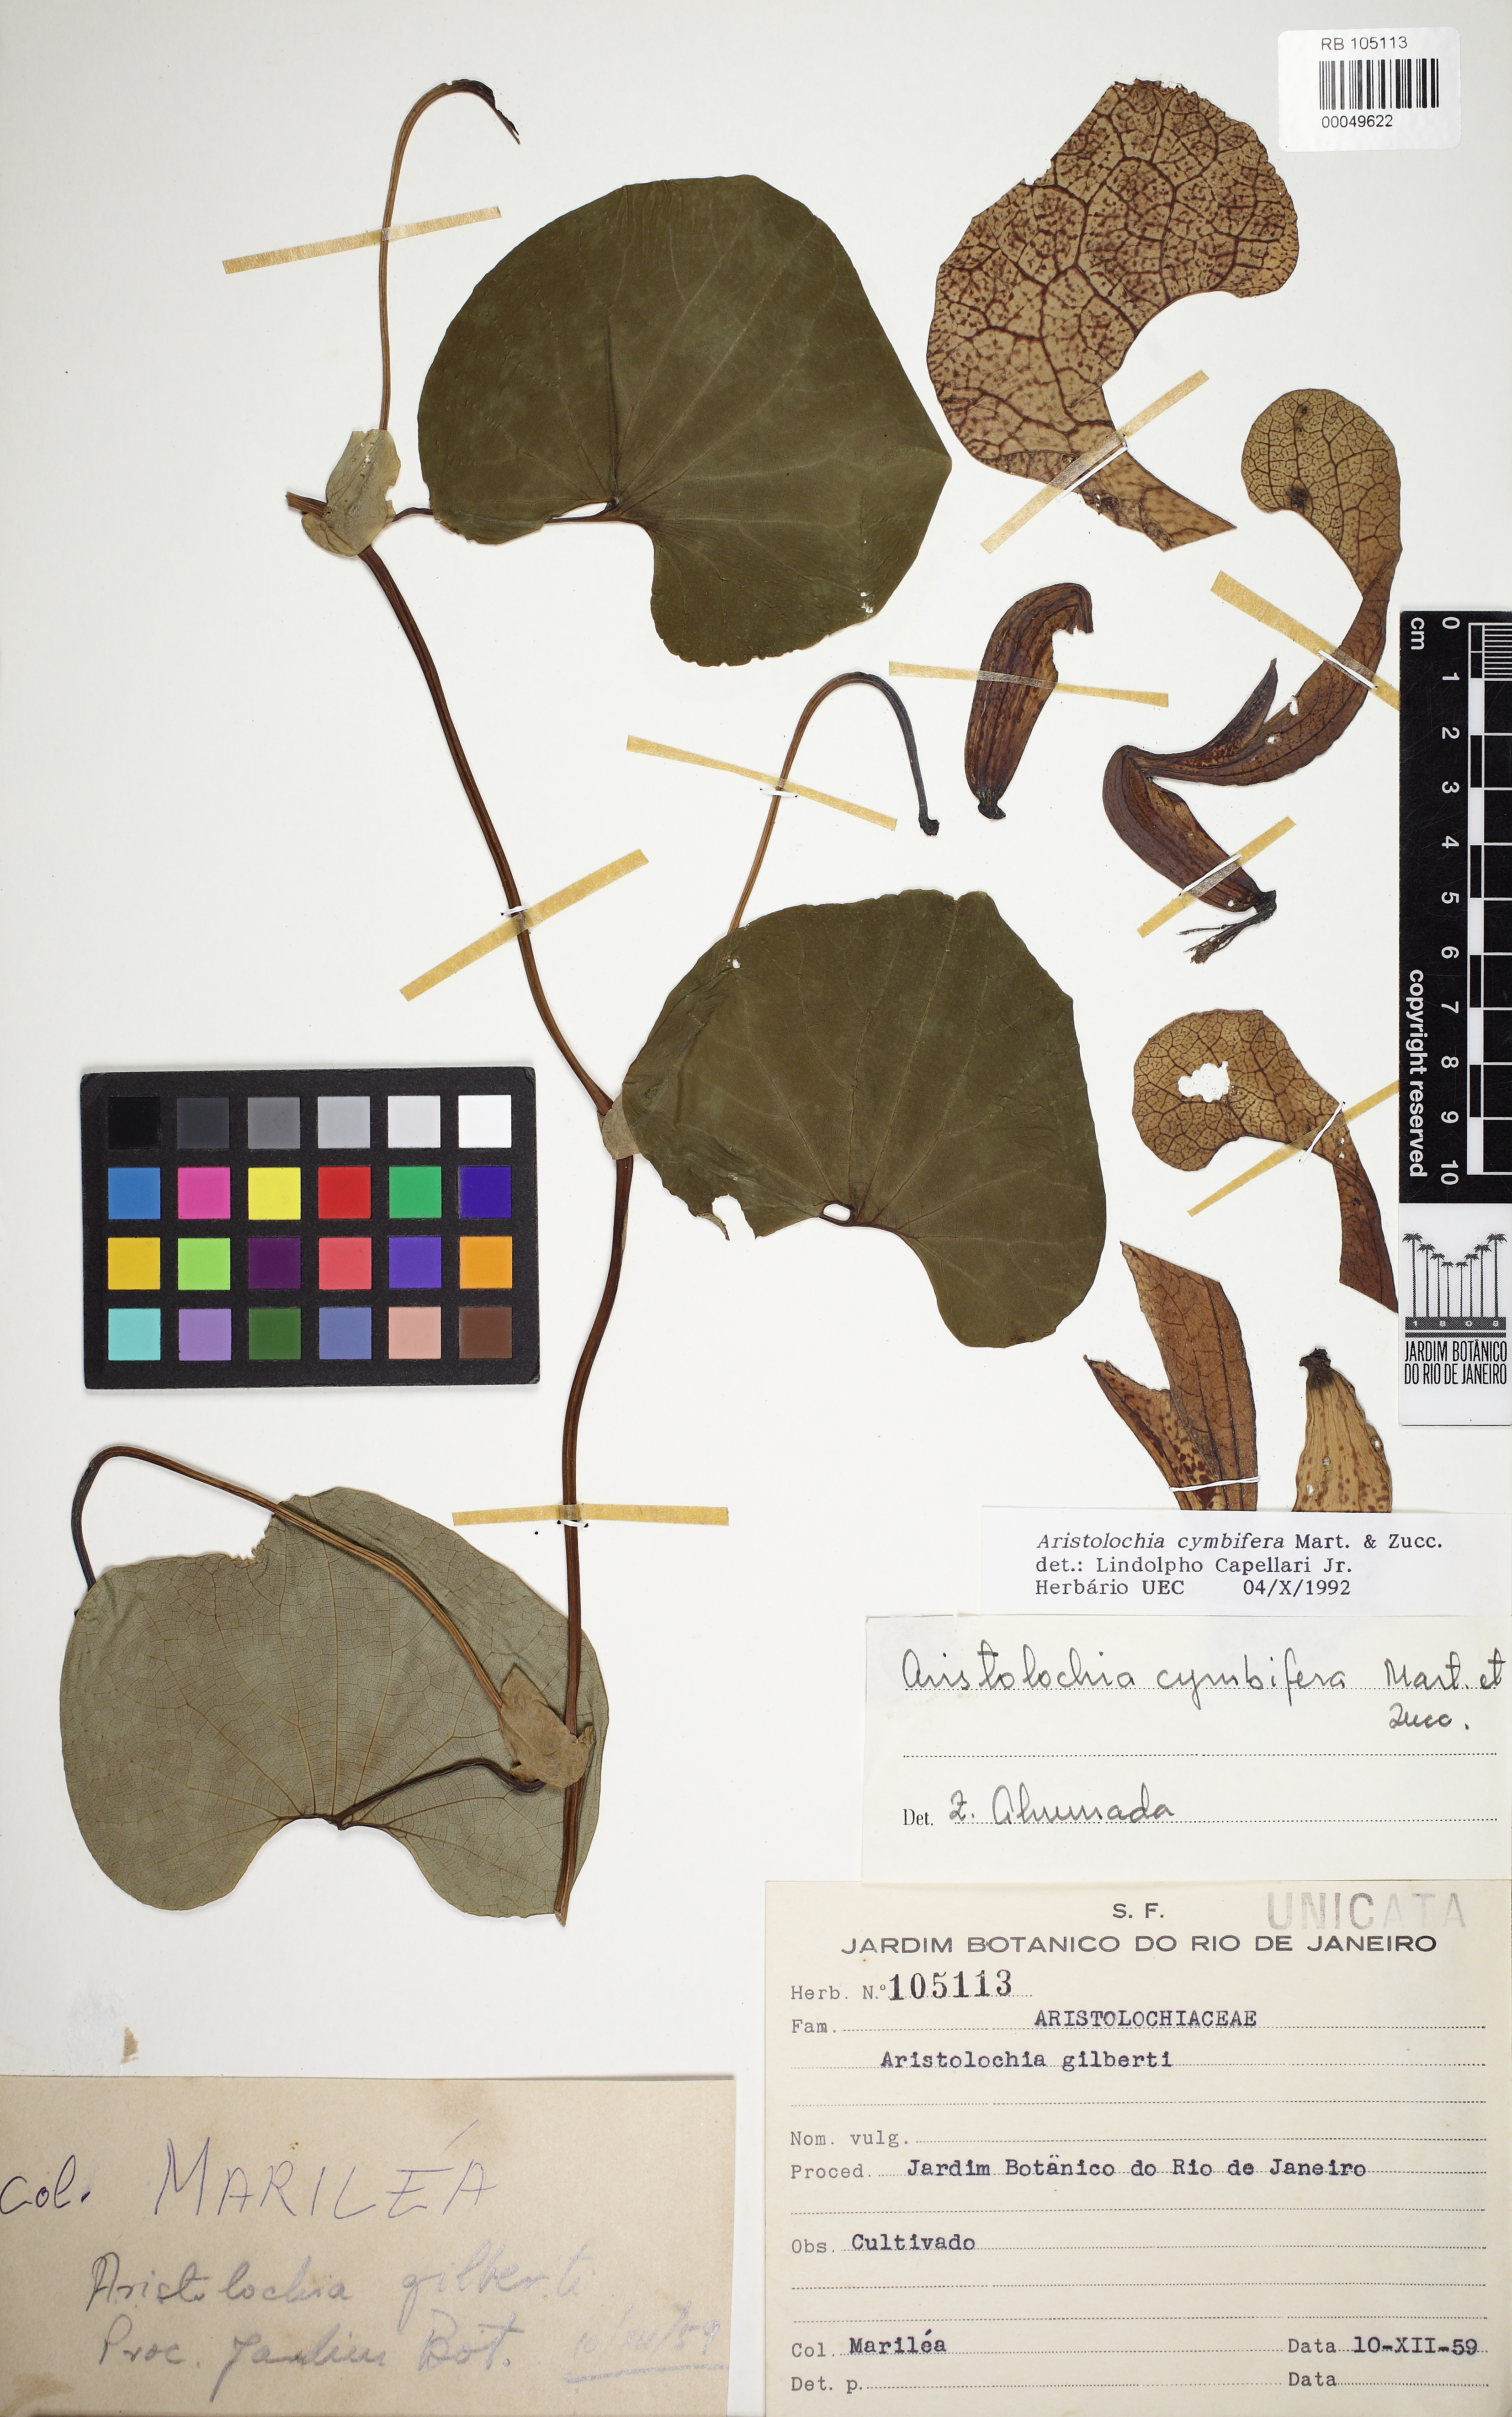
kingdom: Plantae
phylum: Tracheophyta
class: Magnoliopsida
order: Piperales
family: Aristolochiaceae
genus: Aristolochia
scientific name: Aristolochia cymbifera
